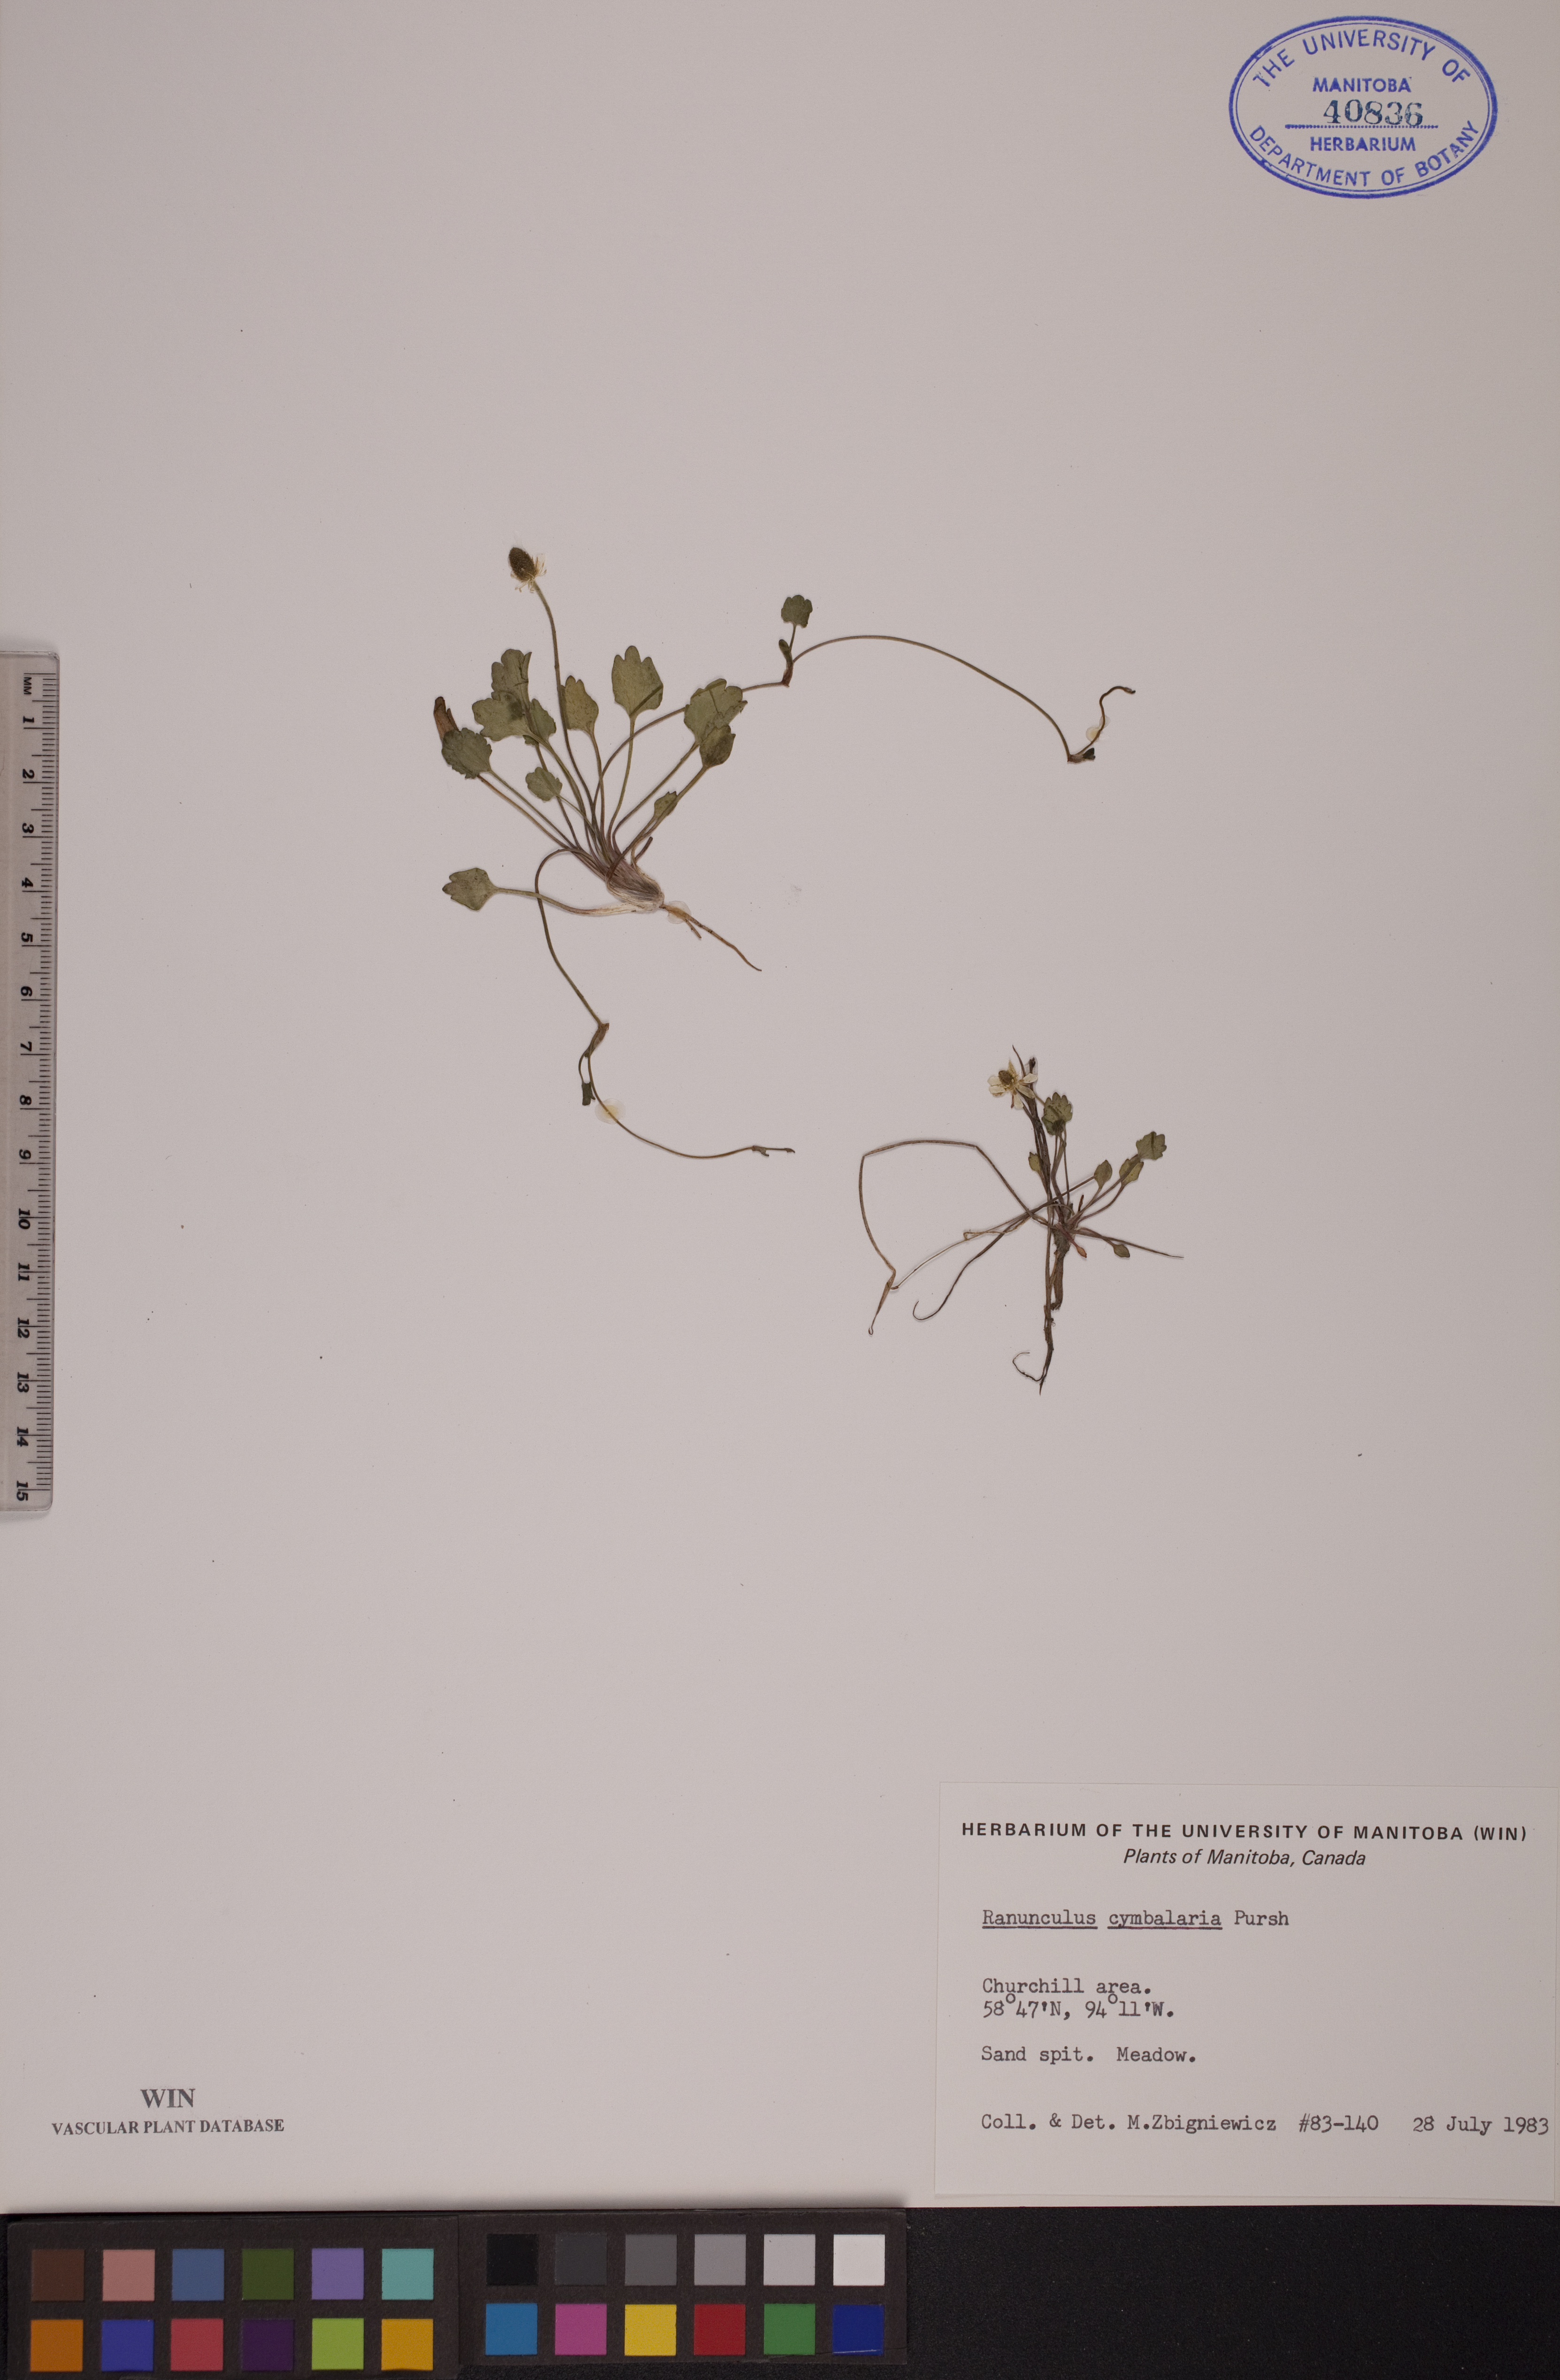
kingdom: Plantae
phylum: Tracheophyta
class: Magnoliopsida
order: Ranunculales
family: Ranunculaceae
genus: Halerpestes
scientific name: Halerpestes cymbalaria
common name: Seaside crowfoot
